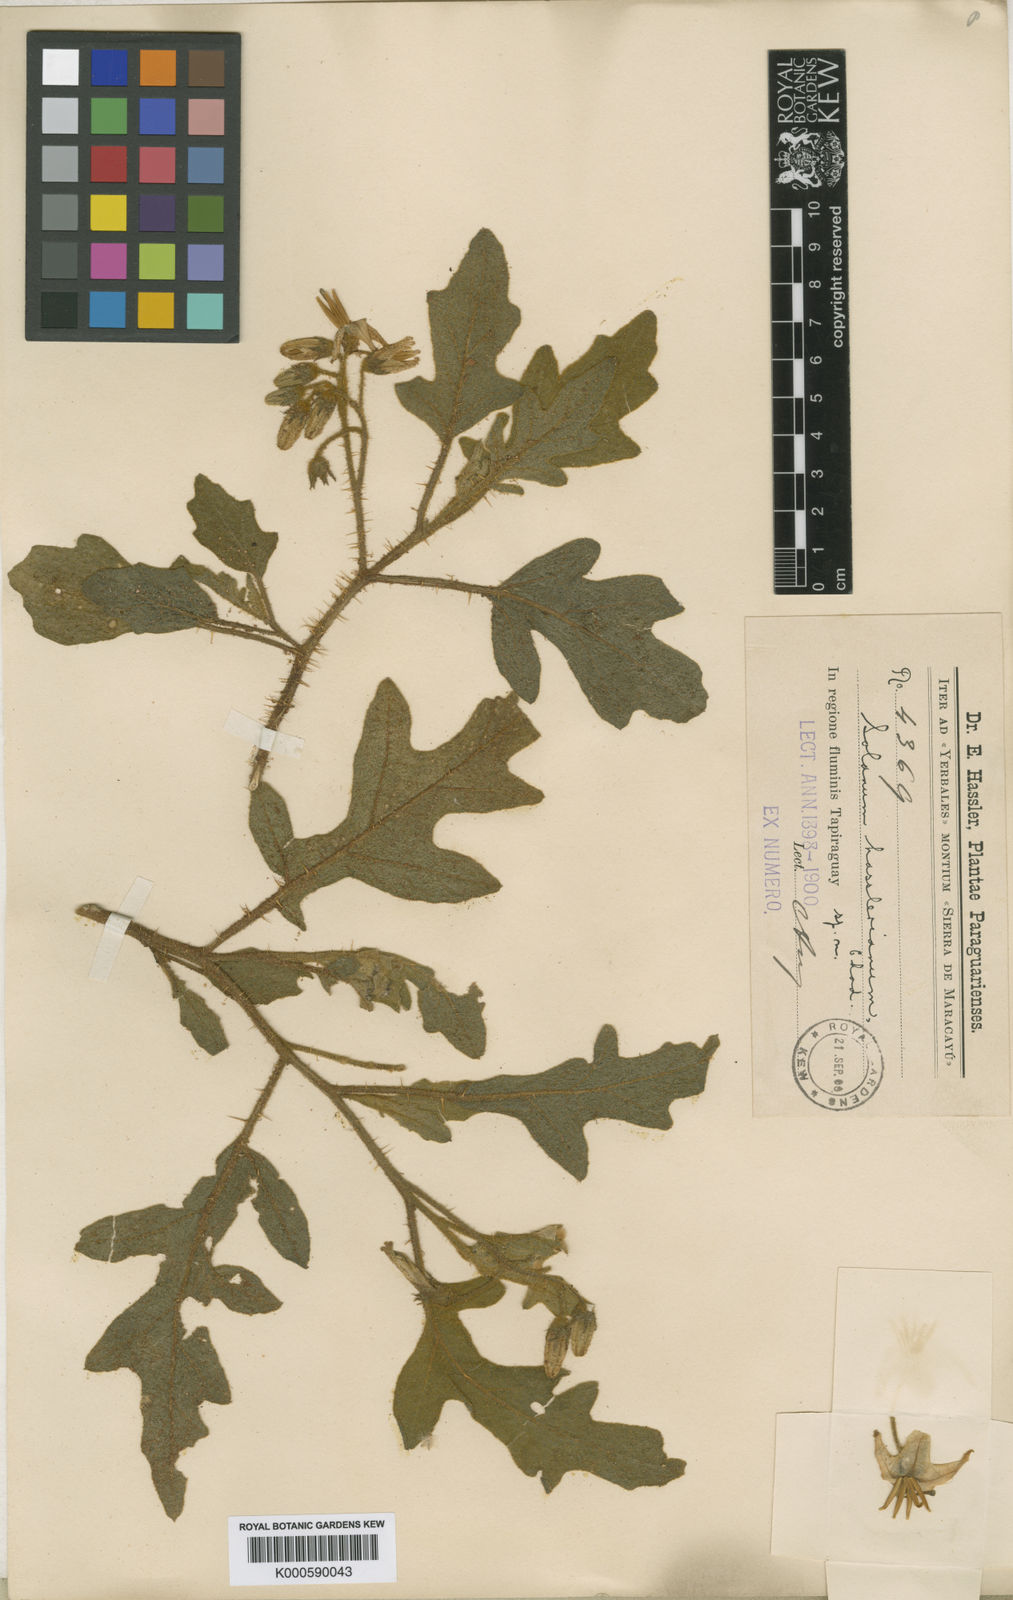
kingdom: Plantae
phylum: Tracheophyta
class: Magnoliopsida
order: Solanales
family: Solanaceae
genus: Solanum
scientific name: Solanum hasslerianum
